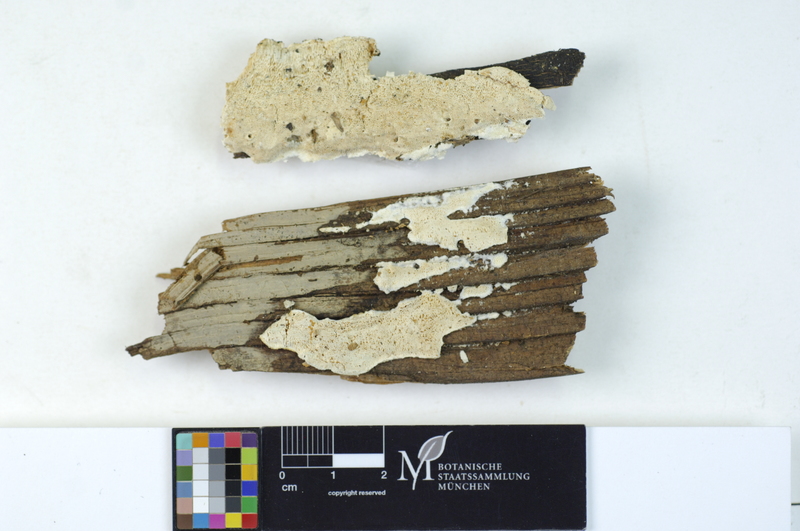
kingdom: Fungi
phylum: Basidiomycota
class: Agaricomycetes
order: Polyporales
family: Dacryobolaceae
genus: Postia
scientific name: Postia sericeomollis
